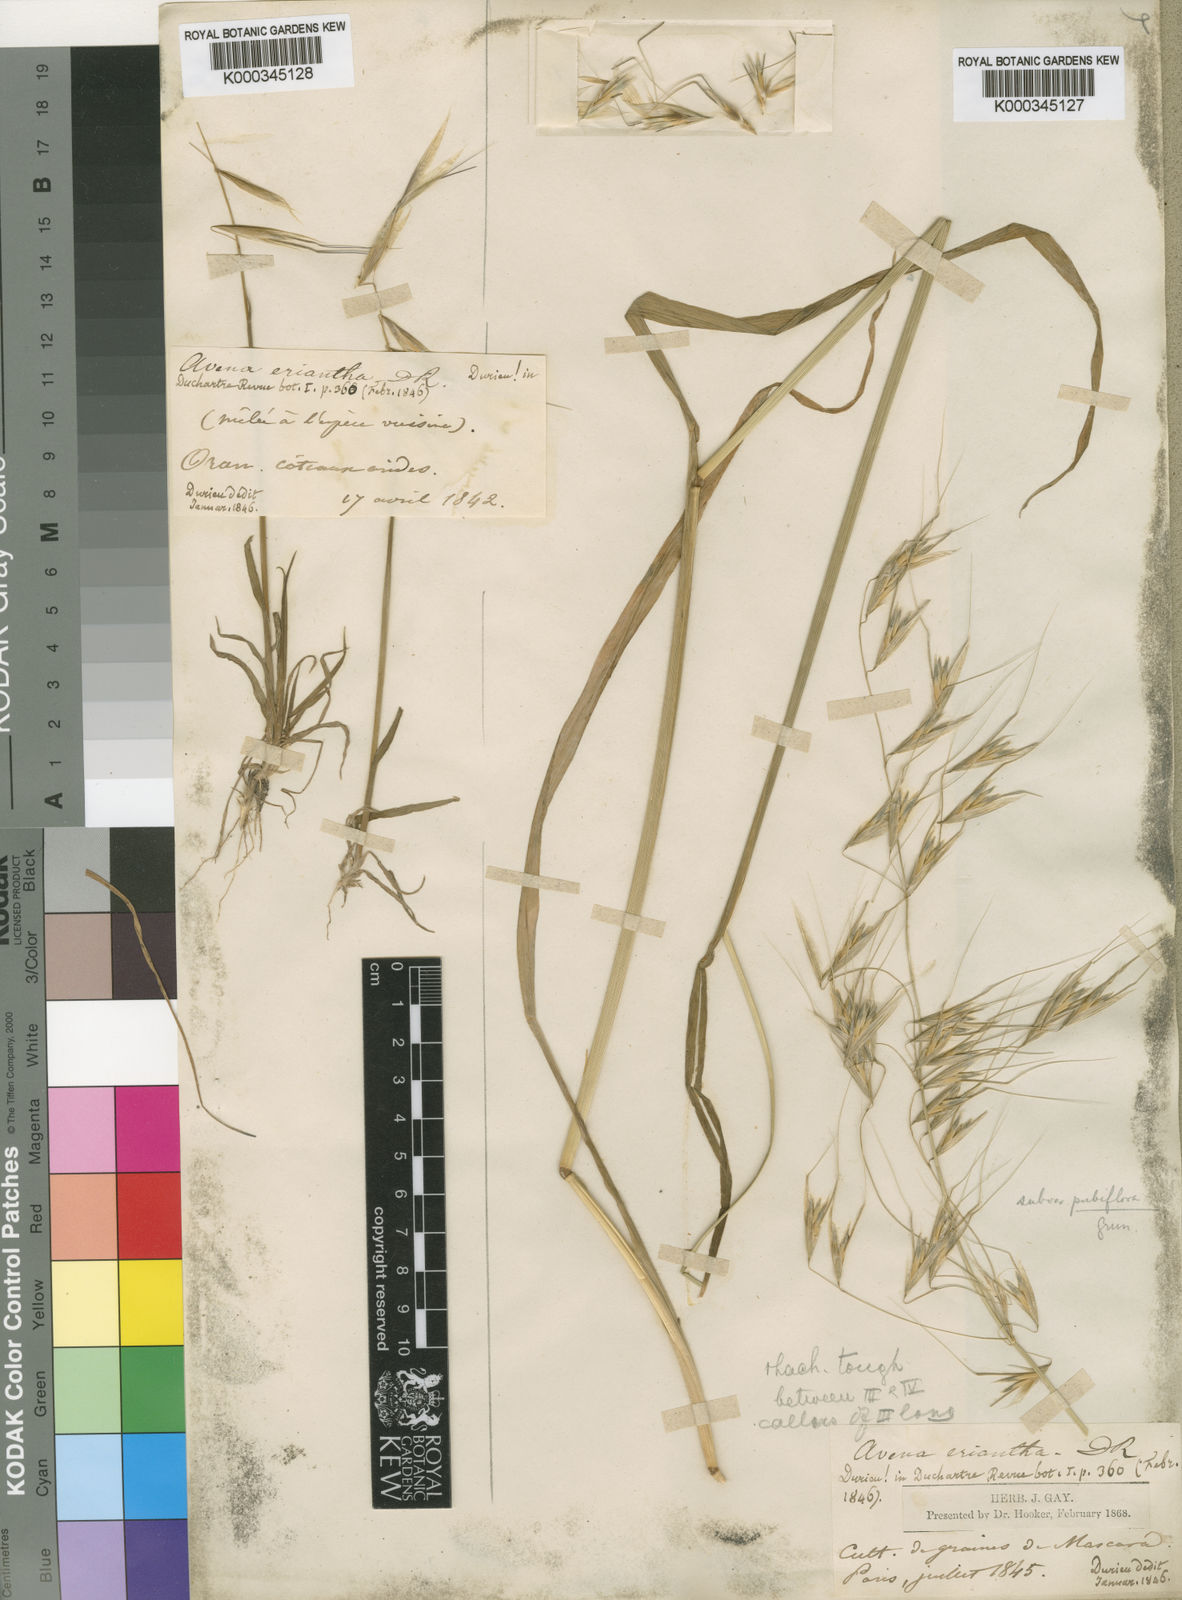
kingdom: Plantae
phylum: Tracheophyta
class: Liliopsida
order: Poales
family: Poaceae
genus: Avena
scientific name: Avena eriantha
